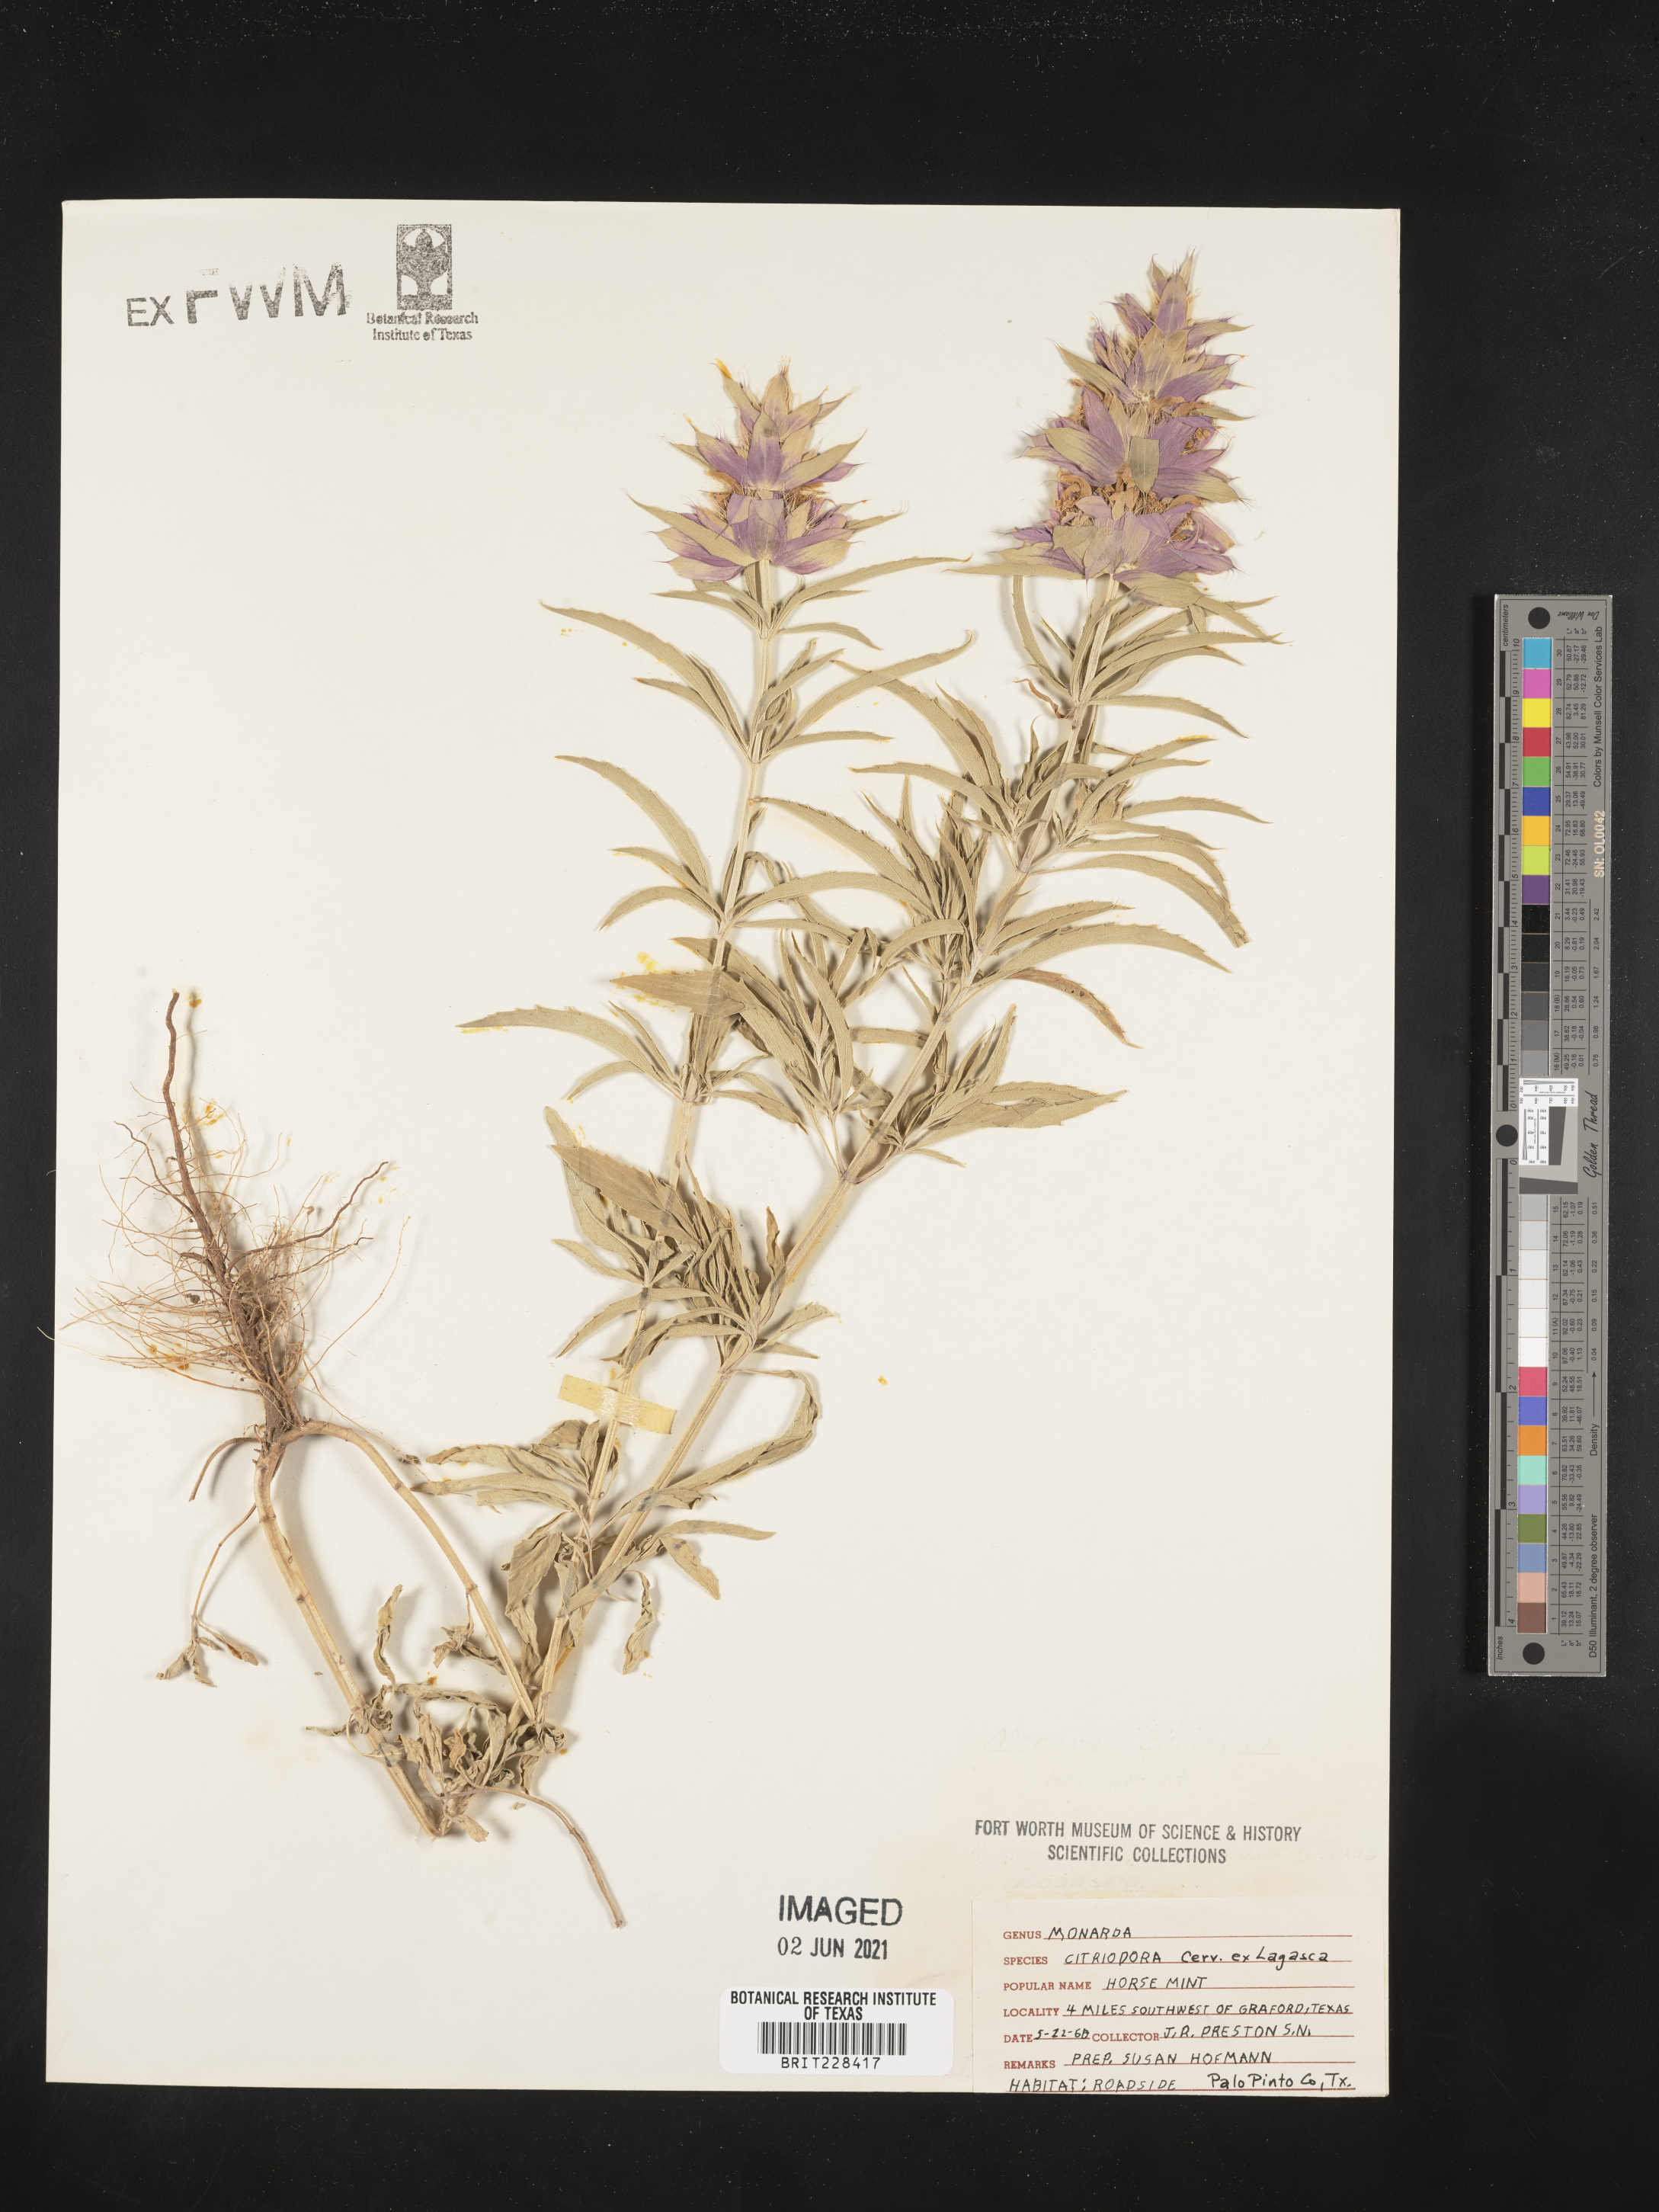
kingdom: Plantae
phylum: Tracheophyta
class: Magnoliopsida
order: Lamiales
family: Lamiaceae
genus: Monarda
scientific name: Monarda citriodora
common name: Lemon beebalm
